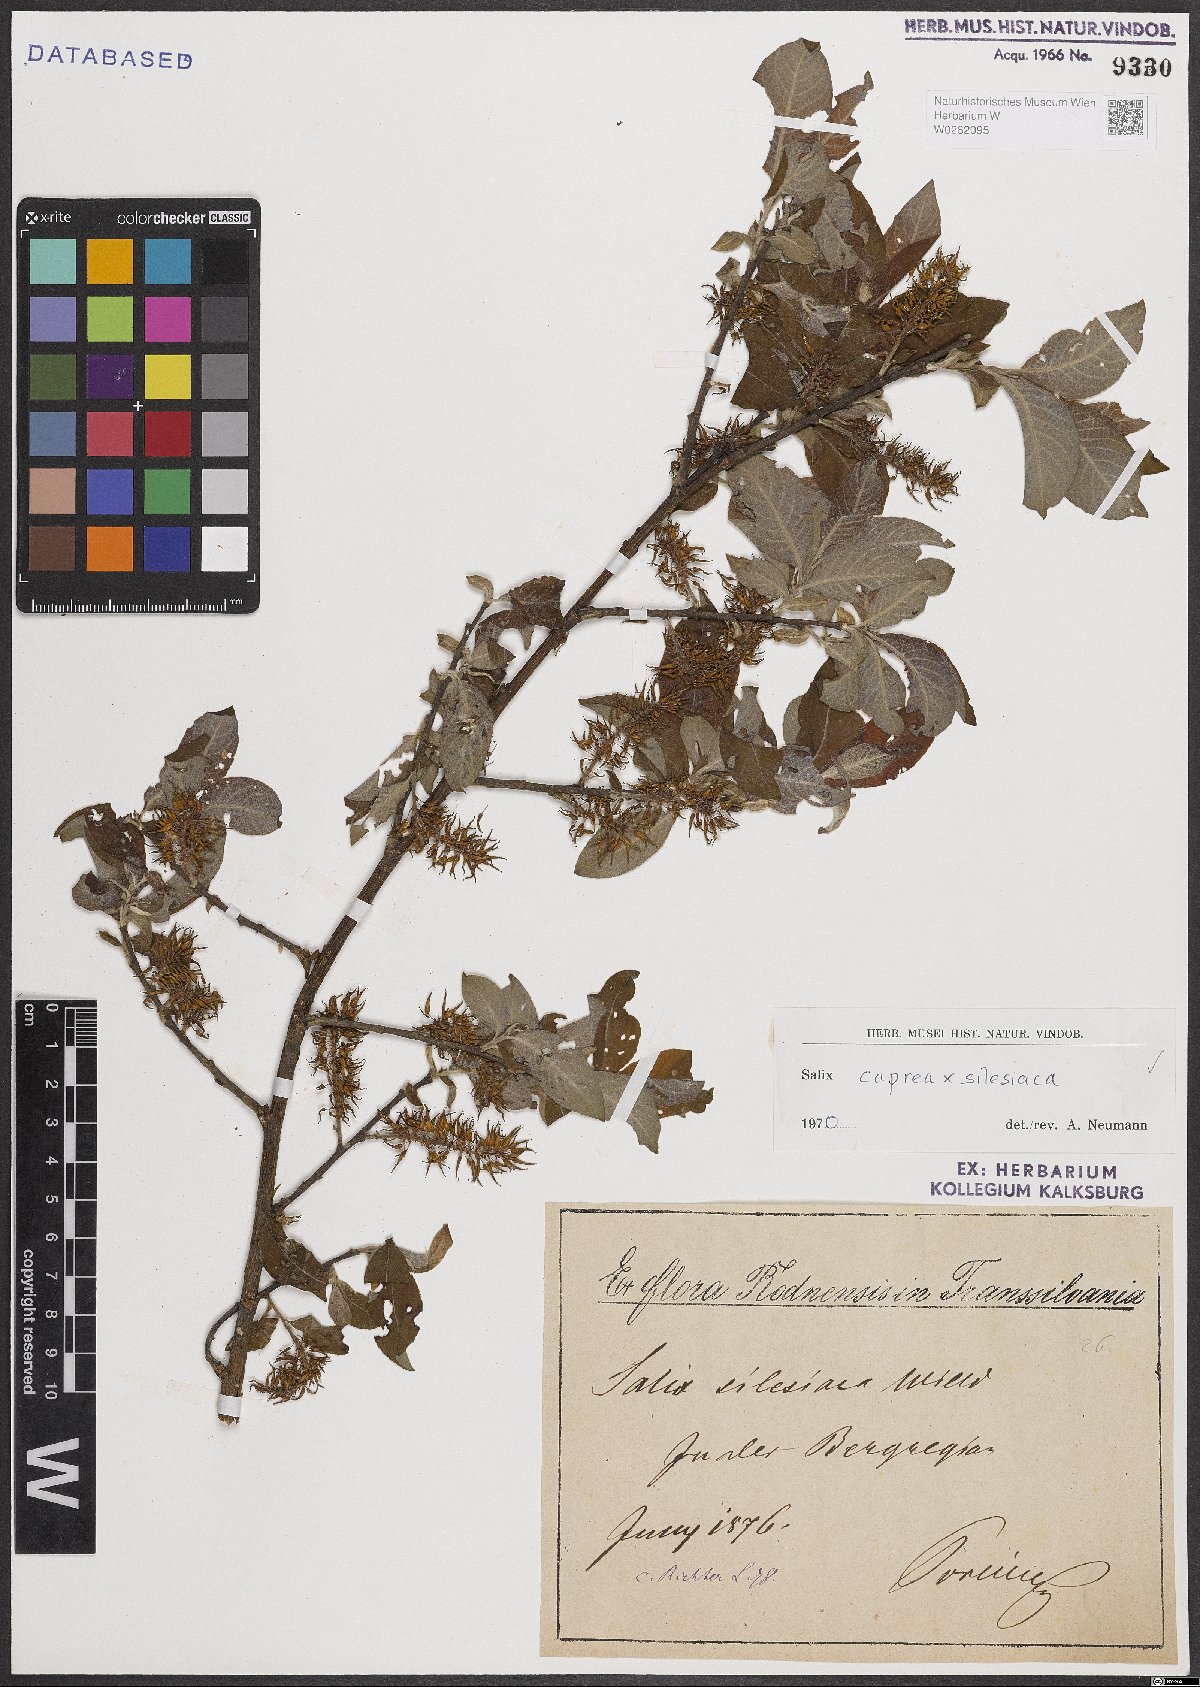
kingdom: Plantae
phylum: Tracheophyta
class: Magnoliopsida
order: Malpighiales
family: Salicaceae
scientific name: Salicaceae
